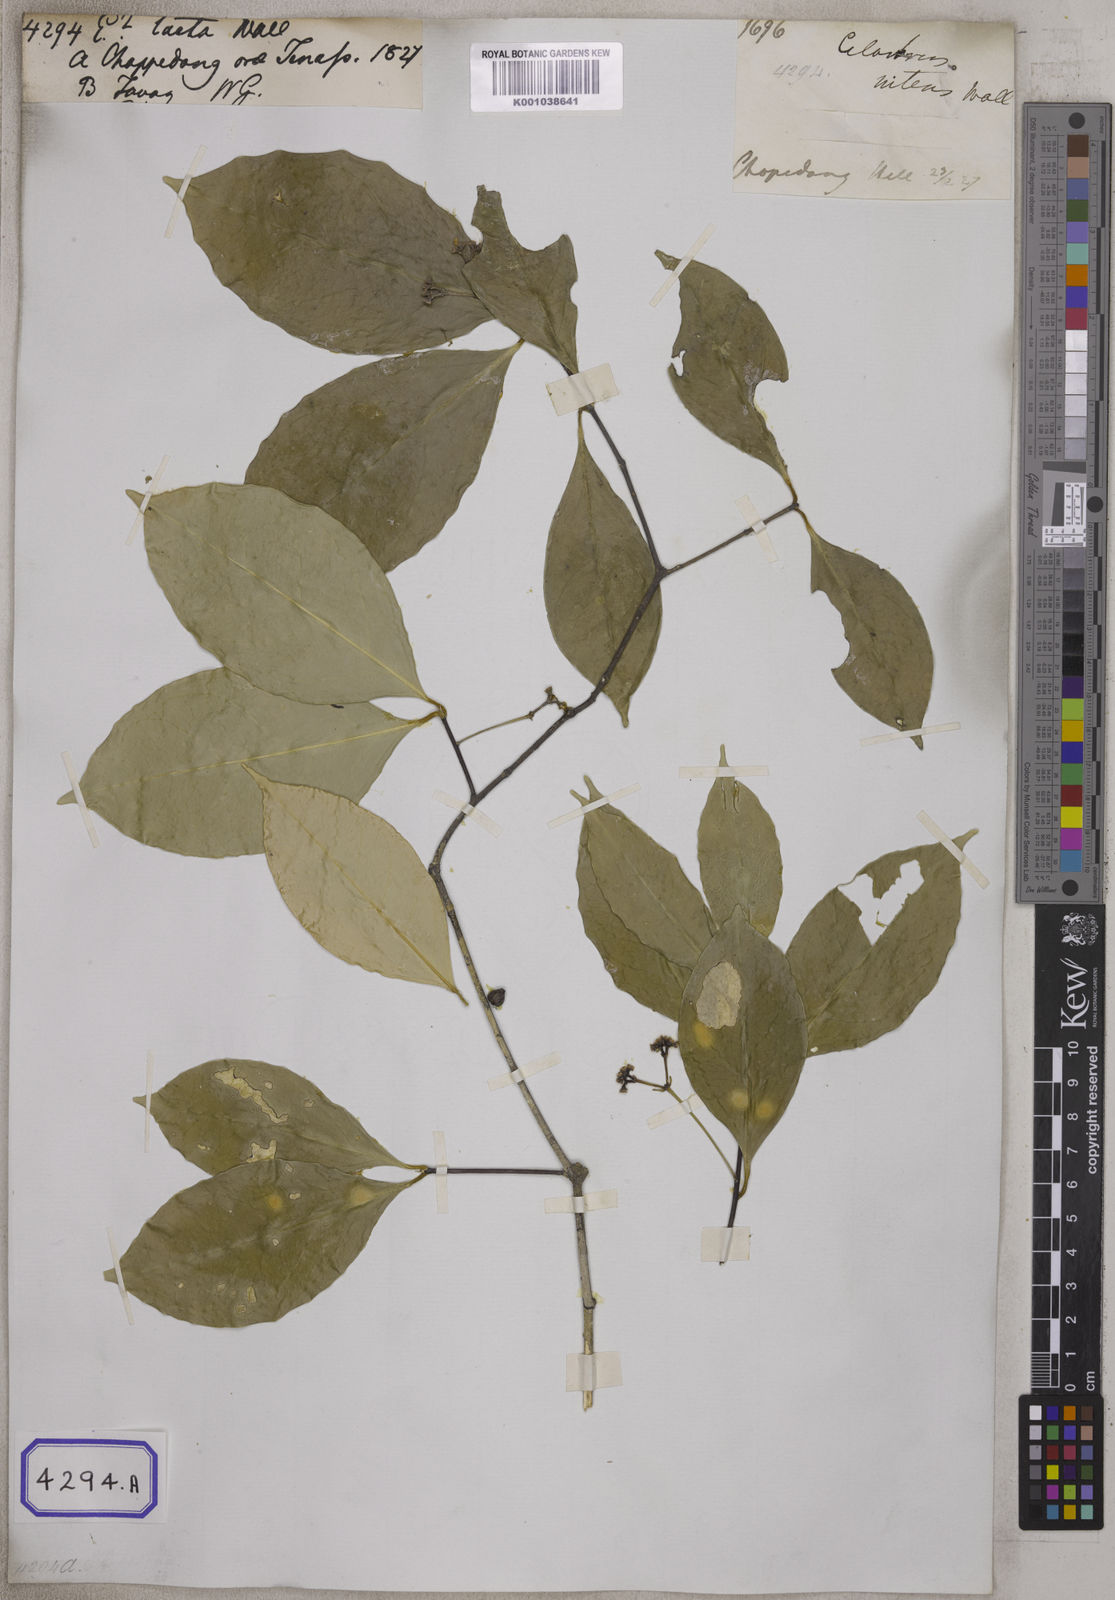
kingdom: Plantae
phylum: Tracheophyta
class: Magnoliopsida
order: Celastrales
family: Celastraceae
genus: Microtropis
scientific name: Microtropis bivalvis
